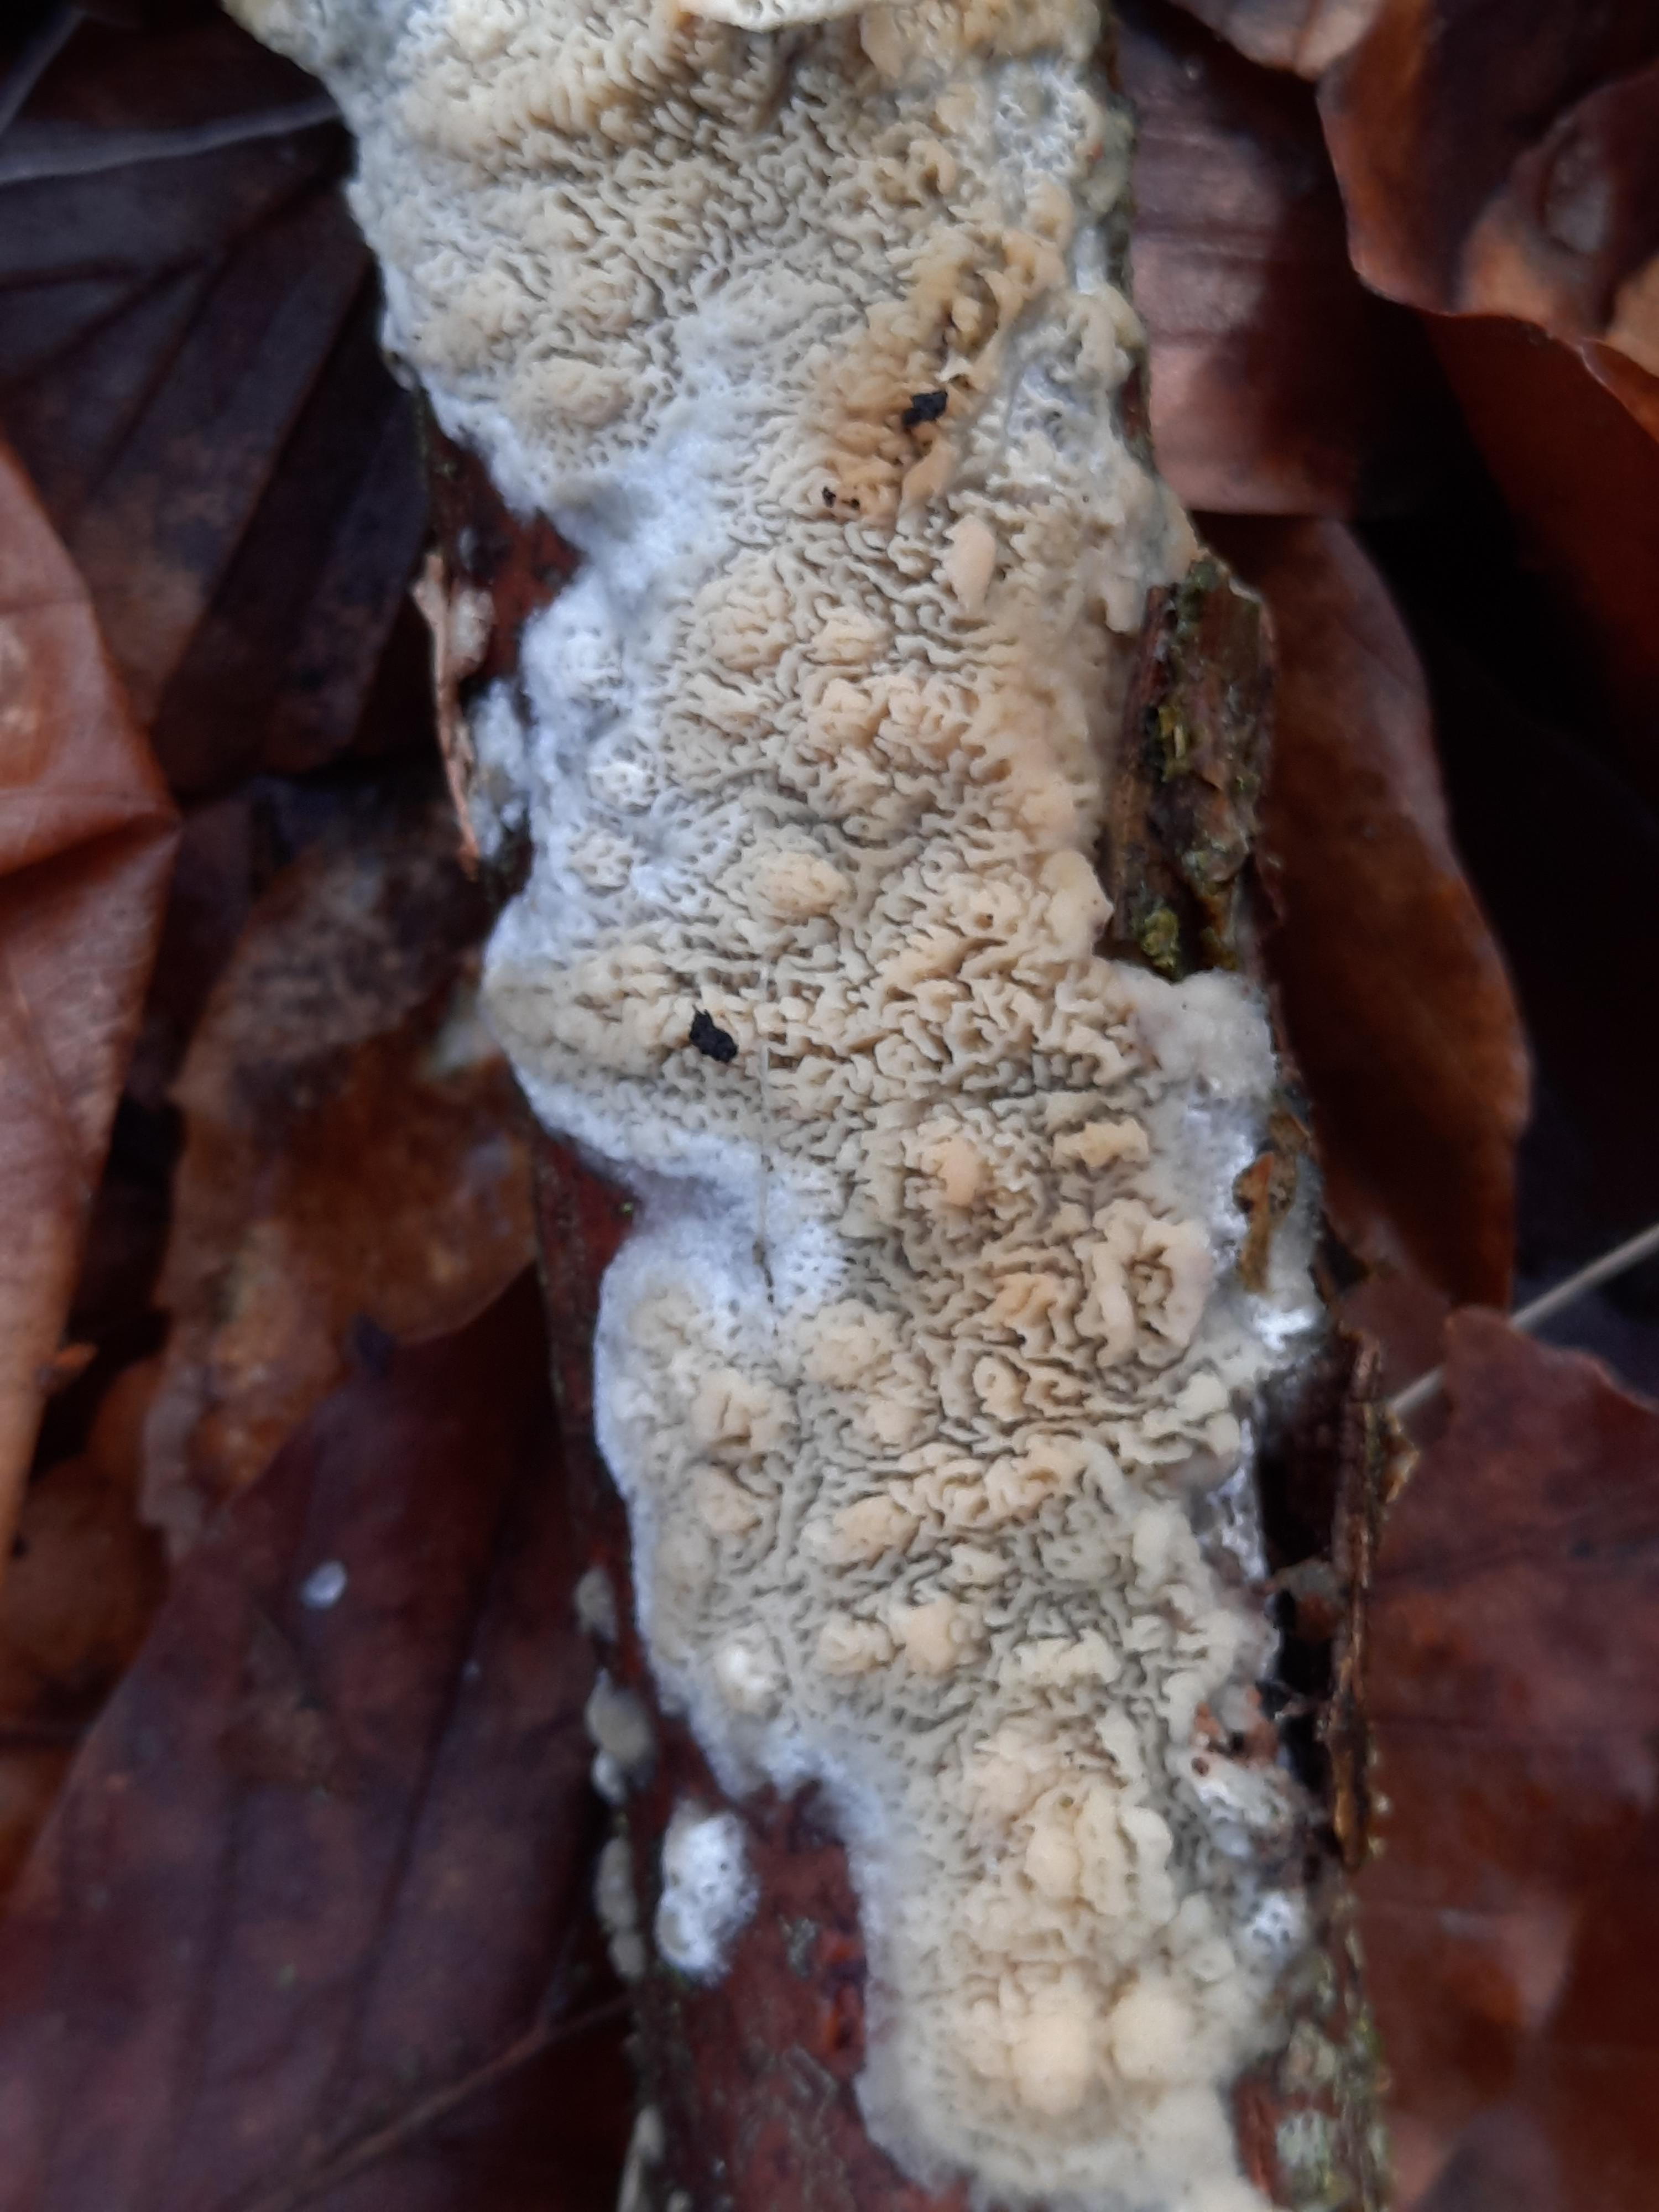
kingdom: Fungi
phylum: Basidiomycota
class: Agaricomycetes
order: Hymenochaetales
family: Schizoporaceae
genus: Xylodon
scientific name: Xylodon
